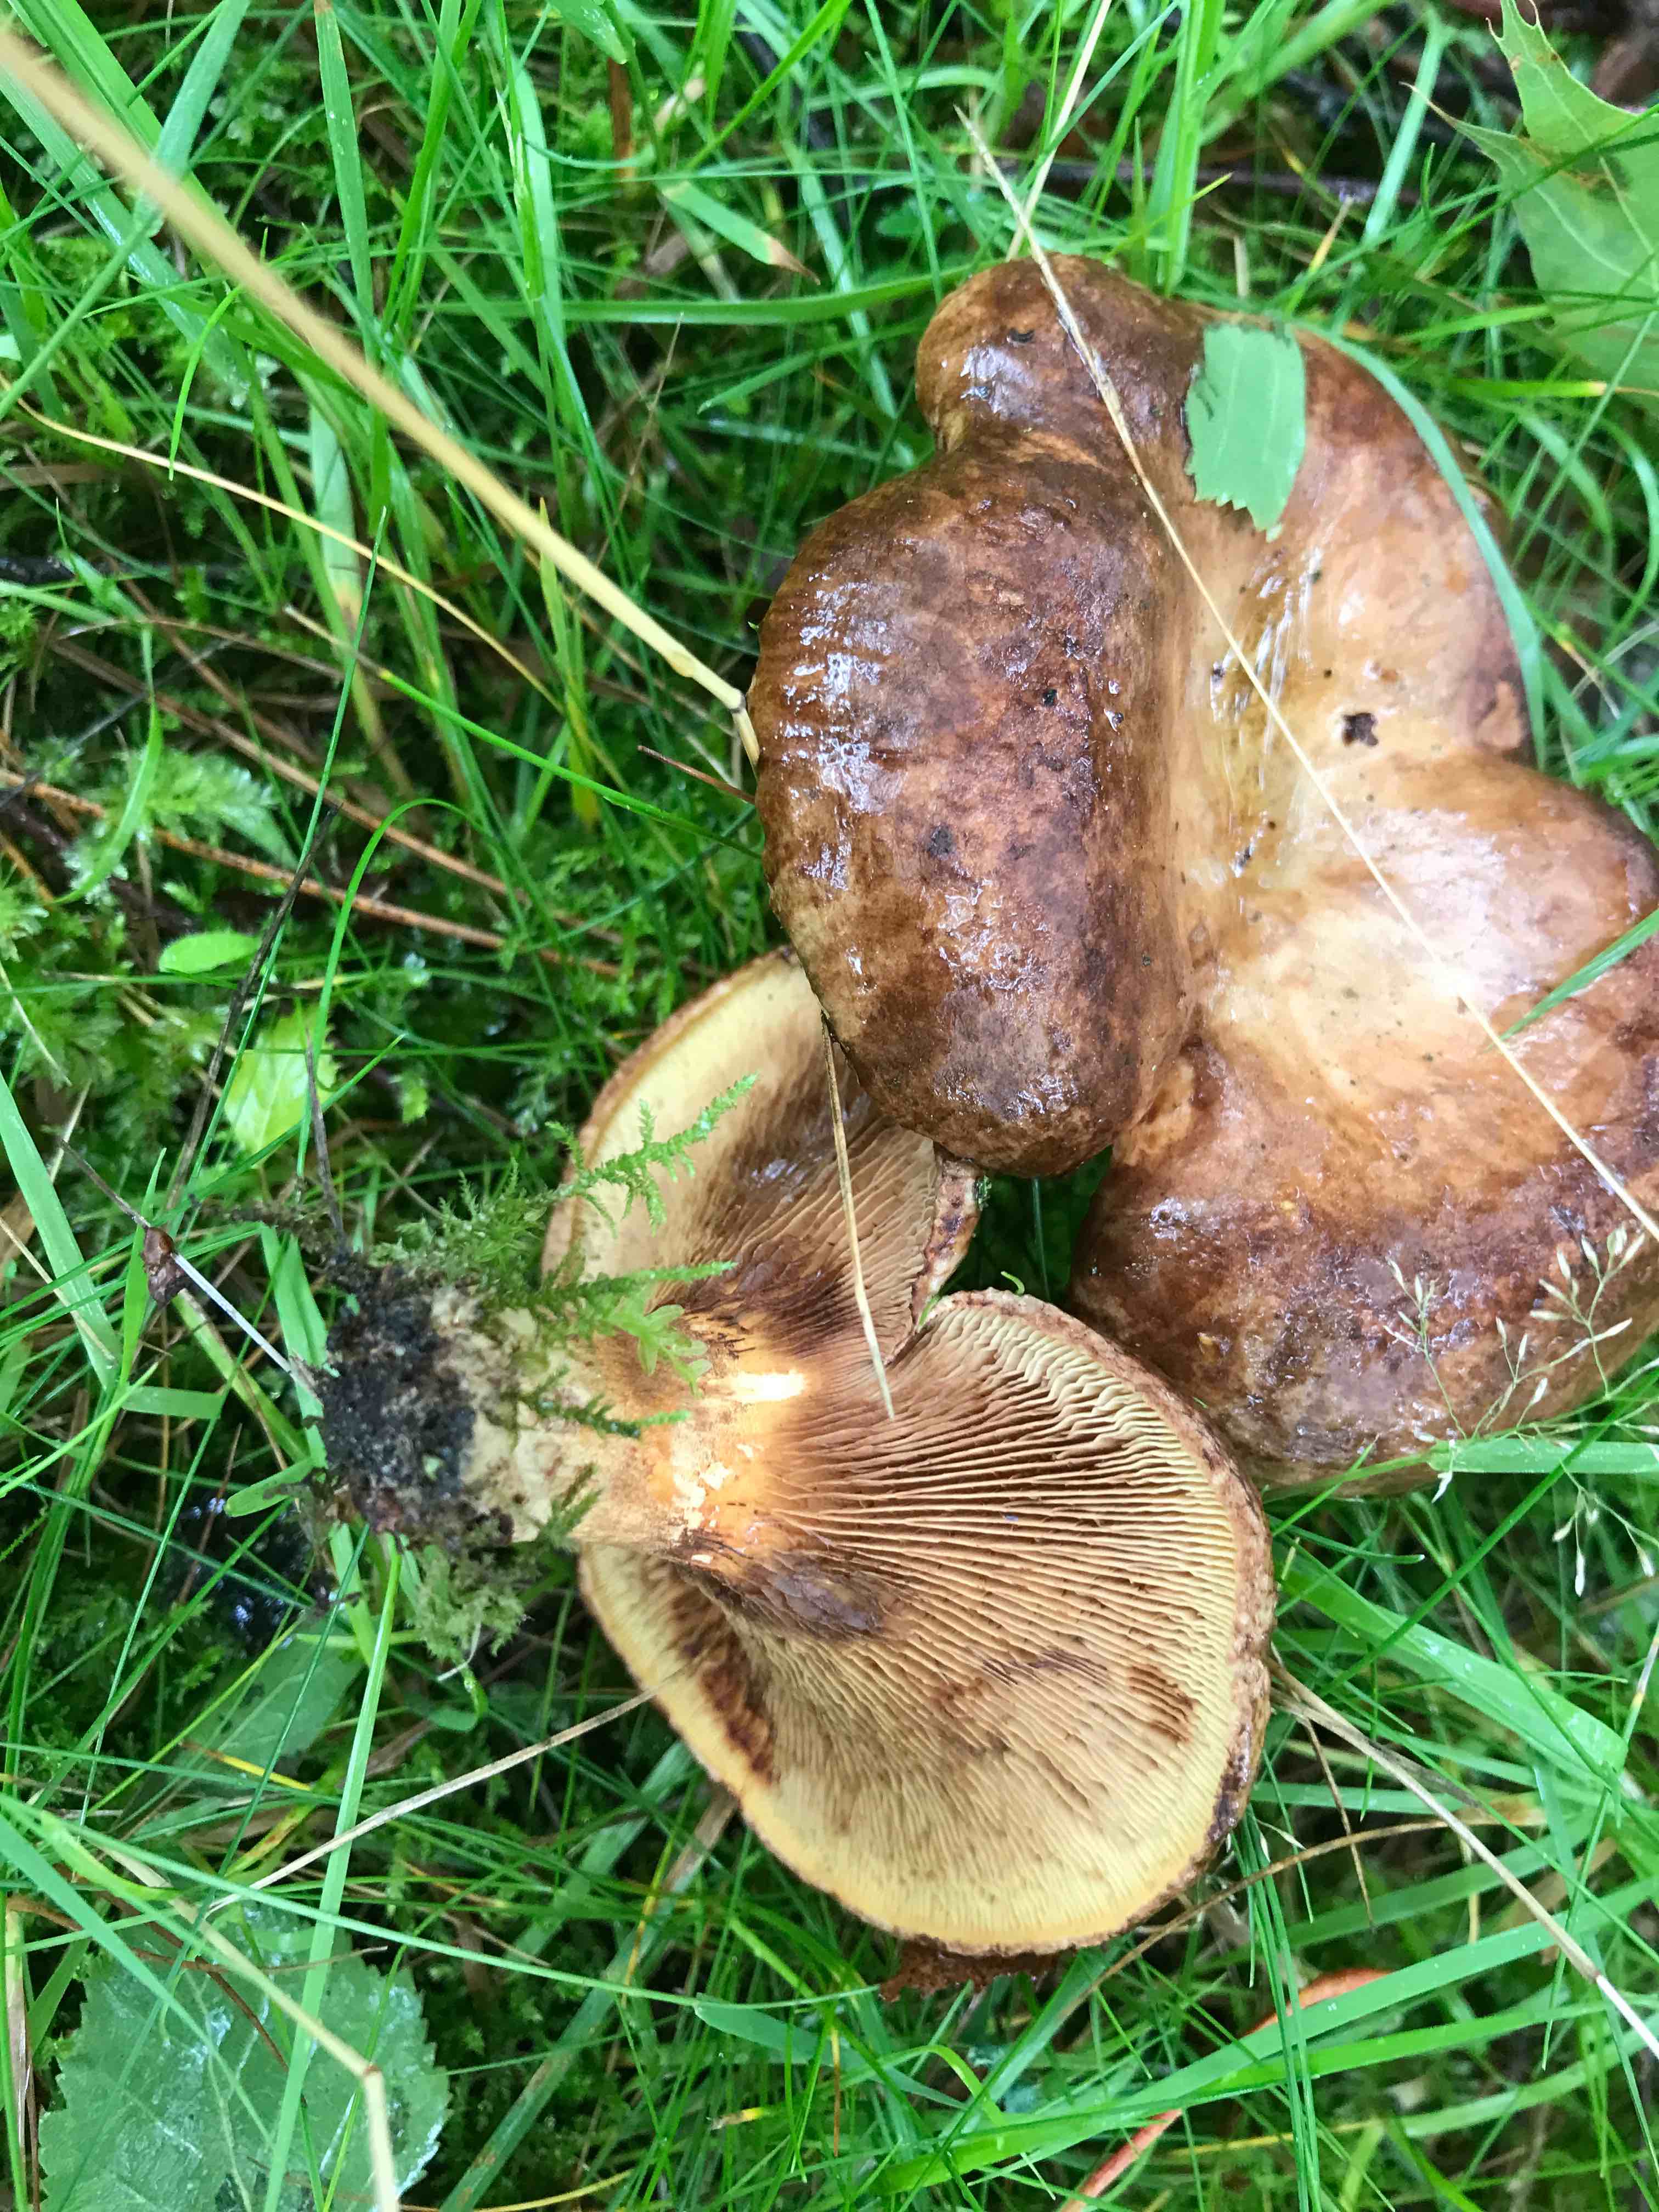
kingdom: Fungi
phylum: Basidiomycota
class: Agaricomycetes
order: Boletales
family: Paxillaceae
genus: Paxillus
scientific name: Paxillus
